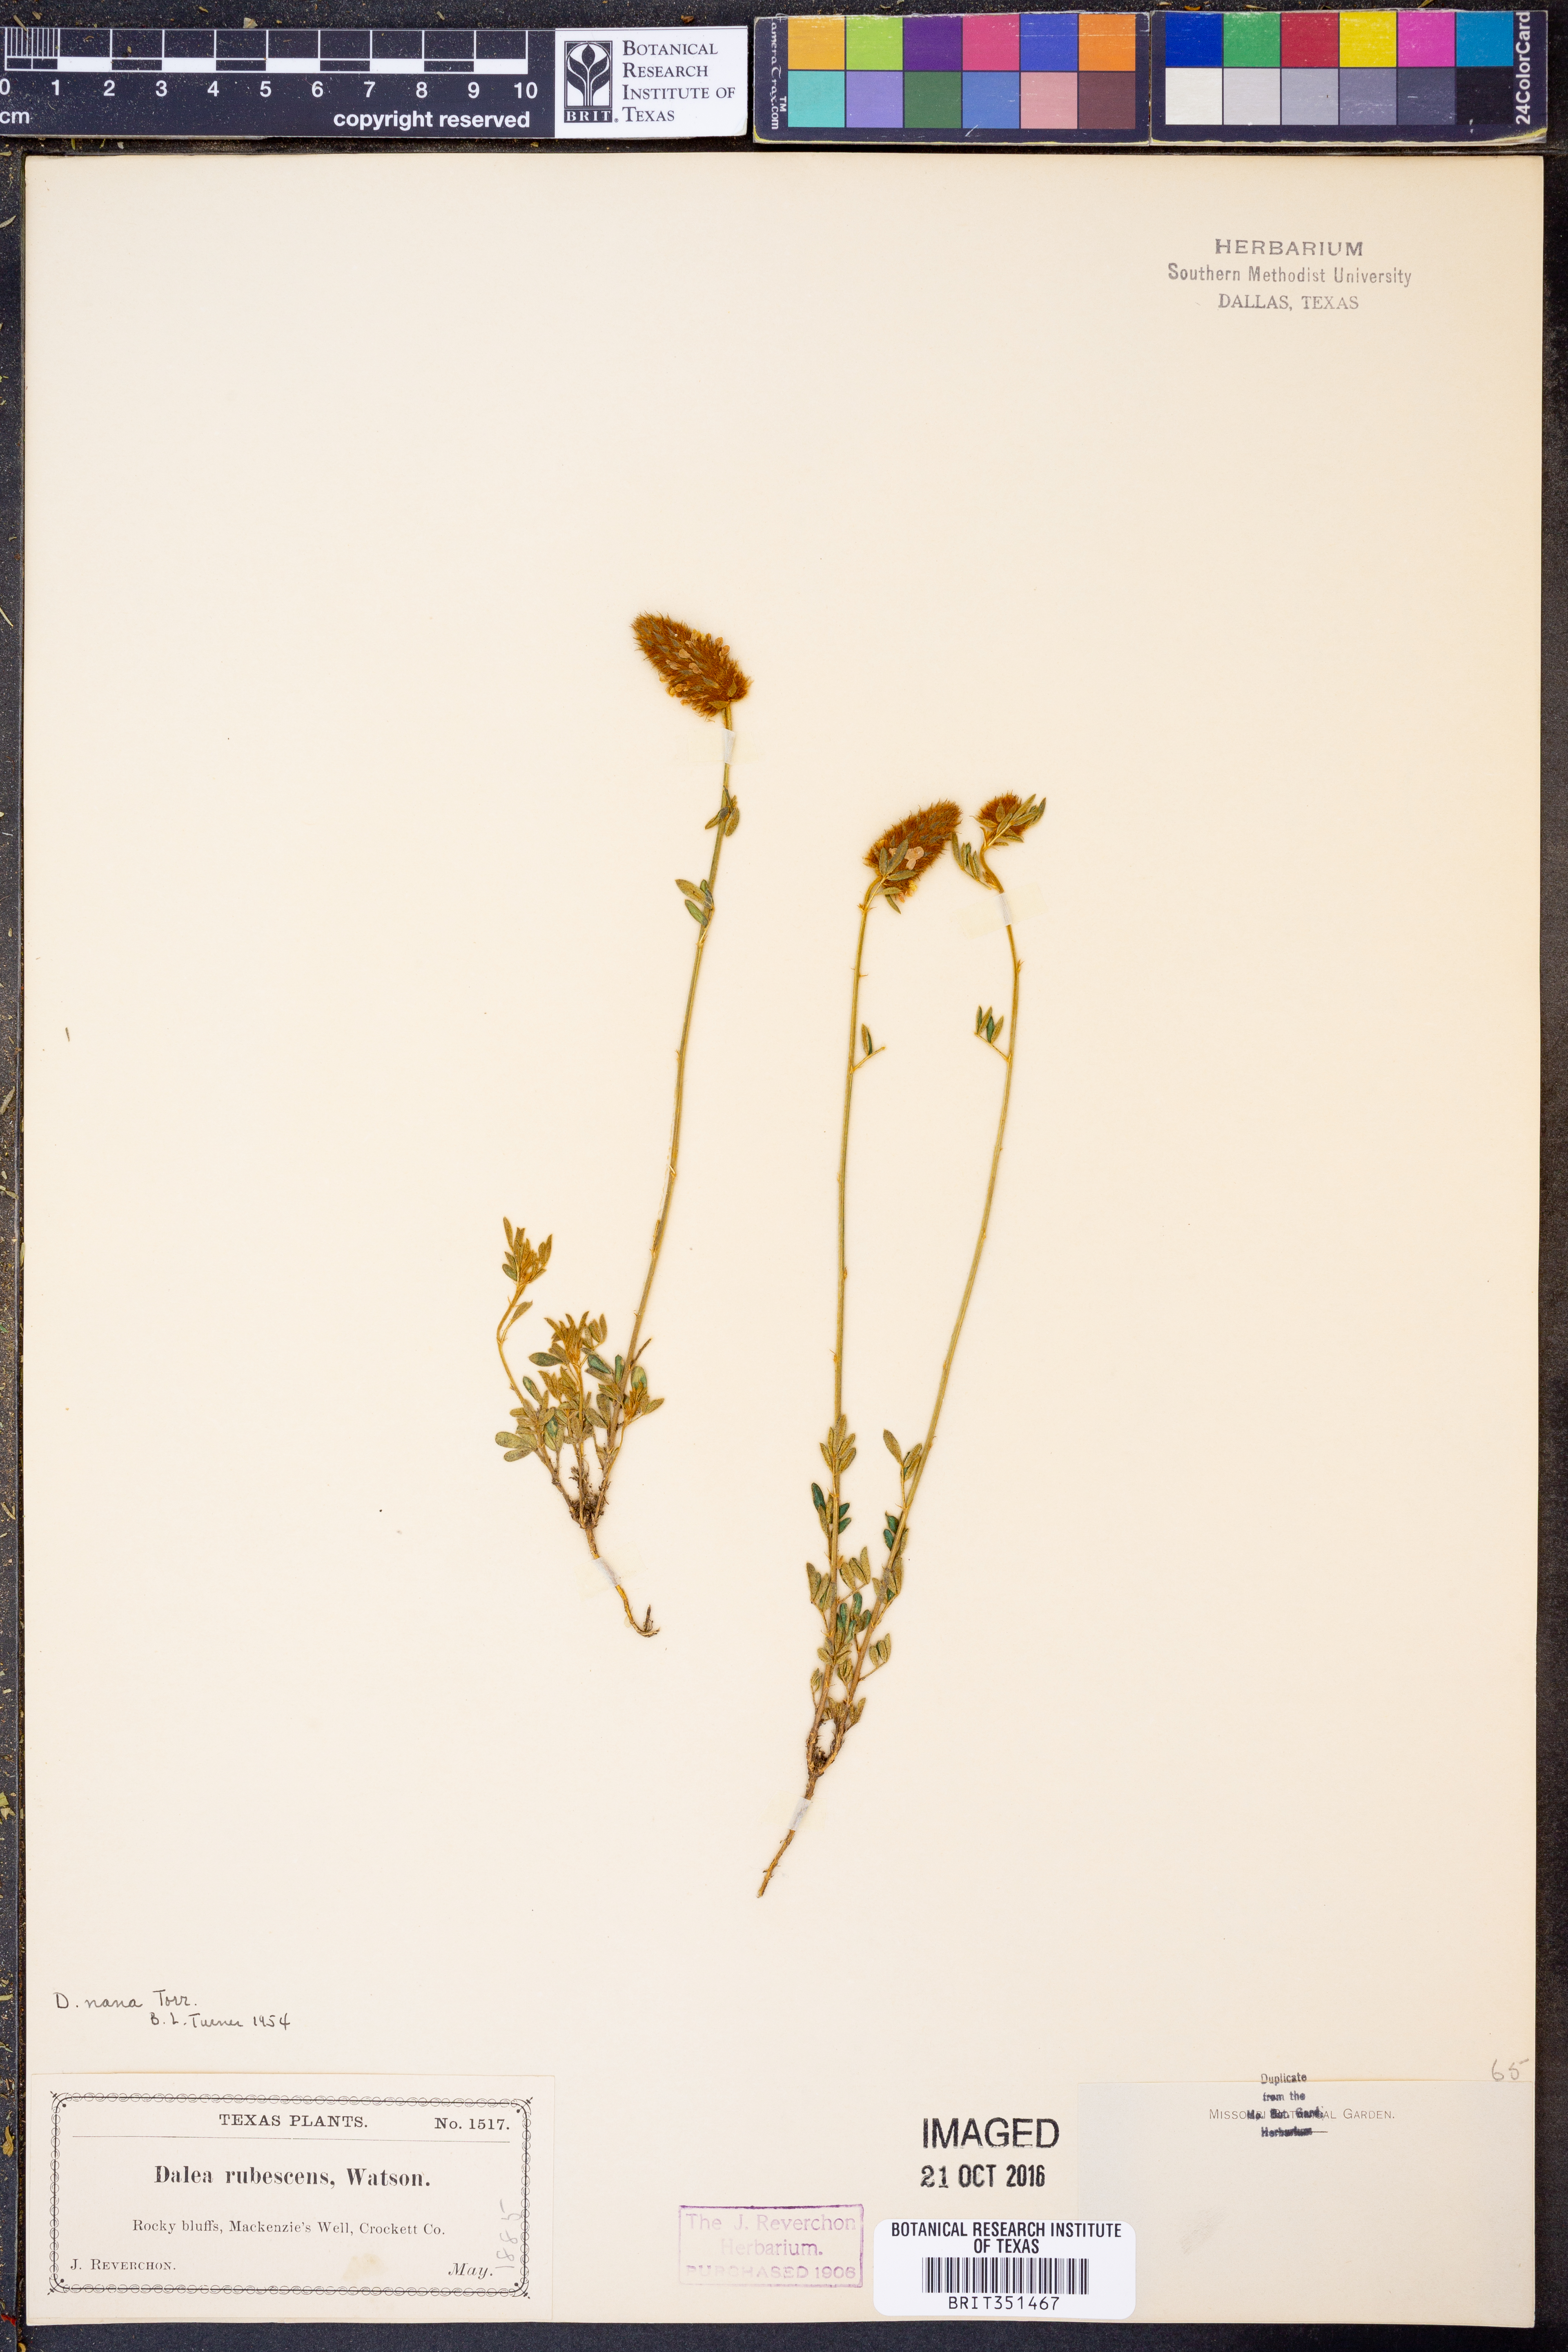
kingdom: Plantae
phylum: Tracheophyta
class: Magnoliopsida
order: Fabales
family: Fabaceae
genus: Dalea
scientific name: Dalea nana
